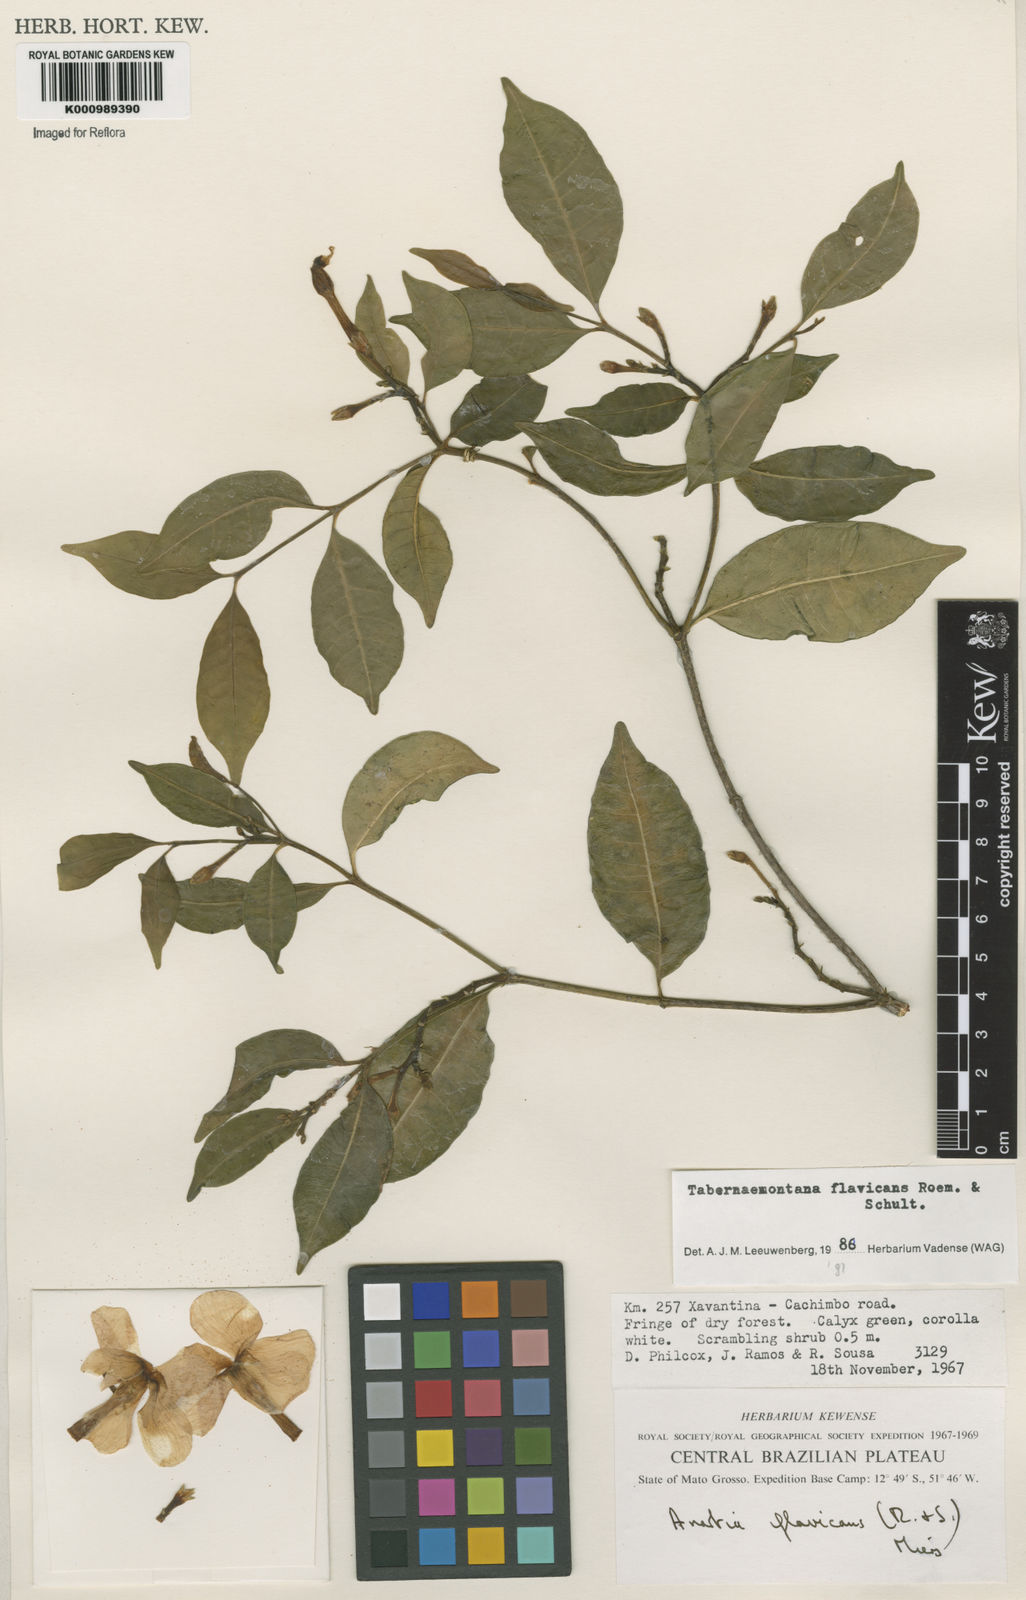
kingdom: Plantae
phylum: Tracheophyta
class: Magnoliopsida
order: Gentianales
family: Apocynaceae
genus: Tabernaemontana
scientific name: Tabernaemontana flavicans
